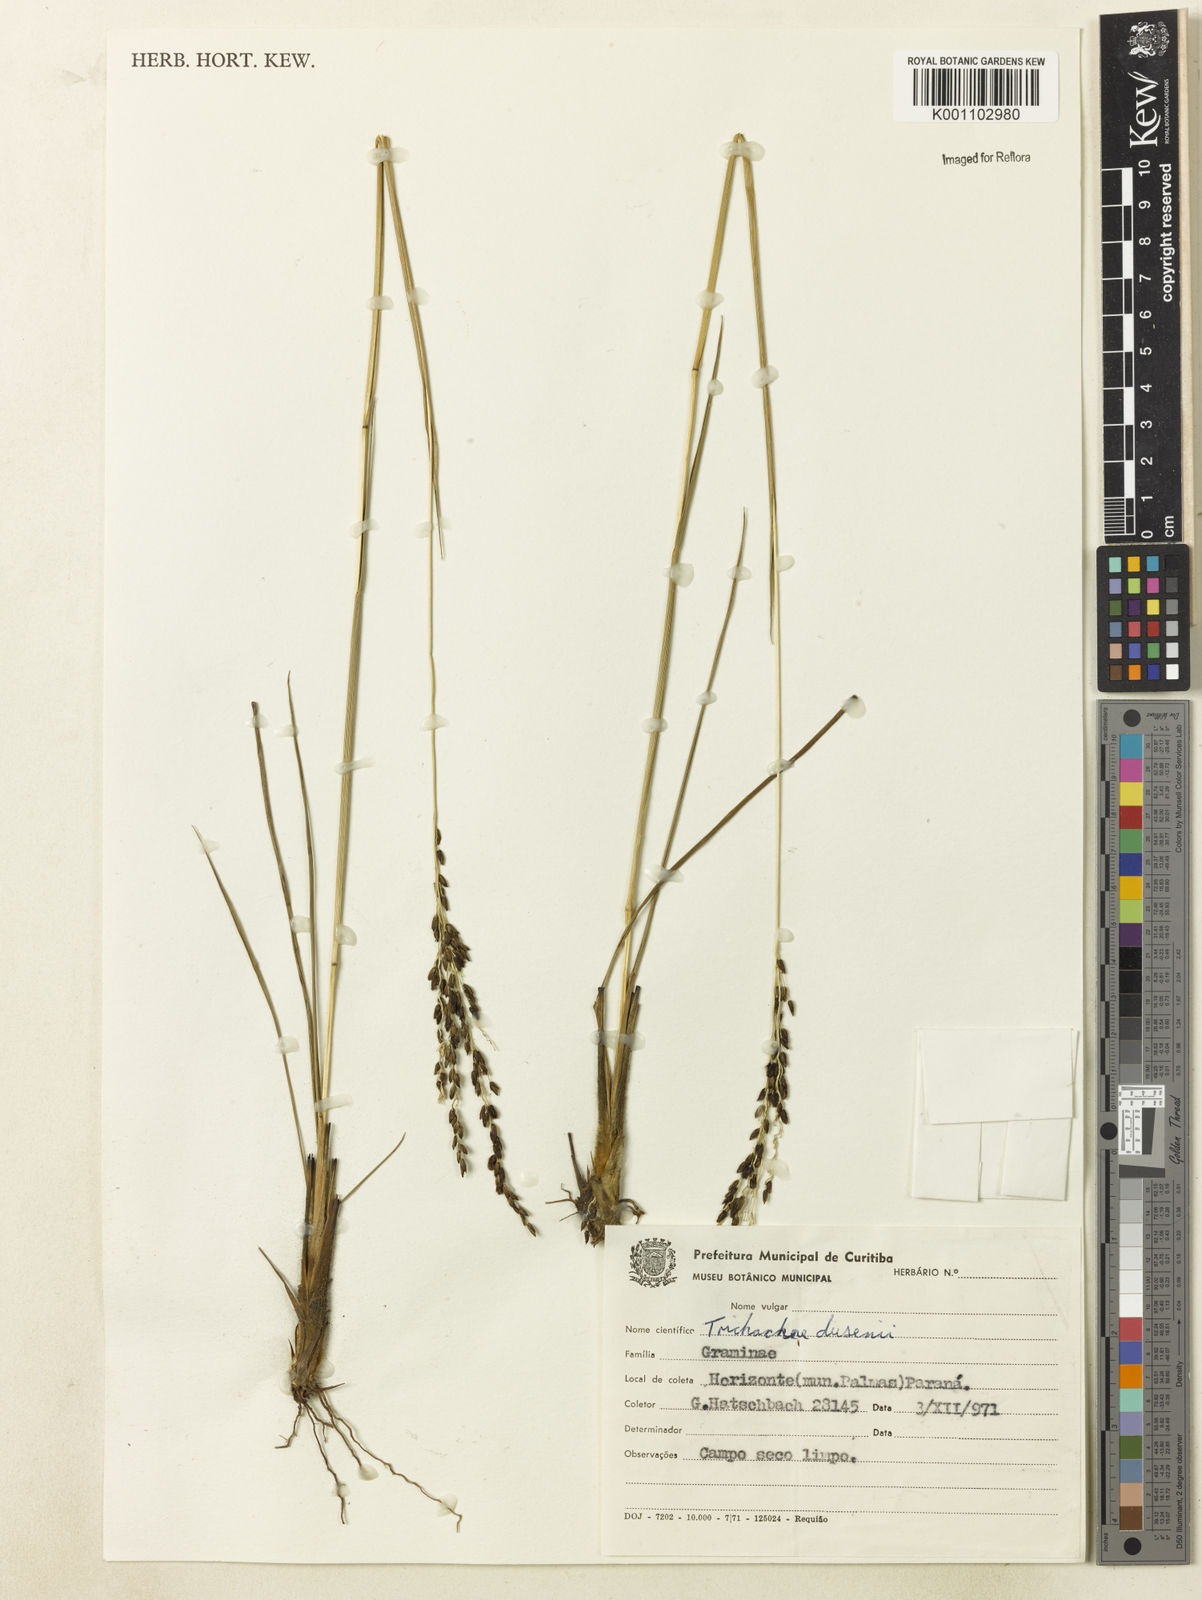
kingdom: Plantae
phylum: Tracheophyta
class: Liliopsida
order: Poales
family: Poaceae
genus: Digitaria
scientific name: Digitaria purpurea
